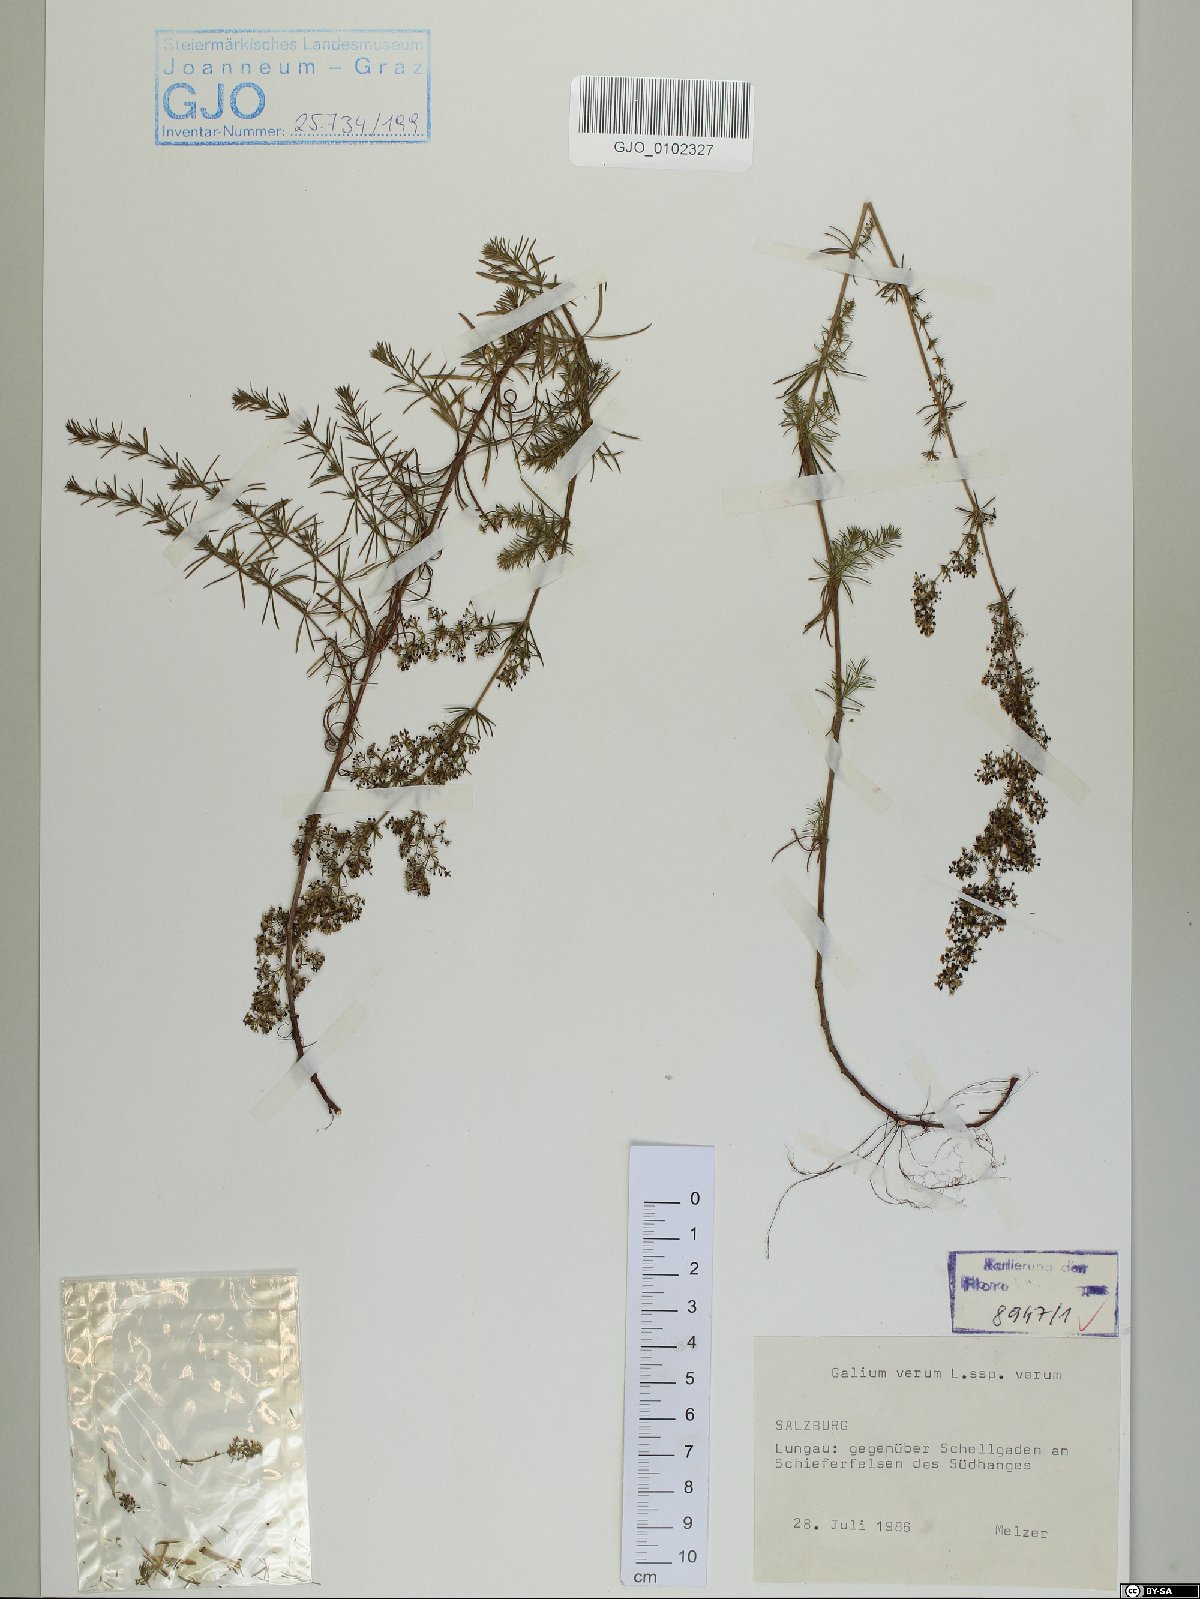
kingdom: Plantae
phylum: Tracheophyta
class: Magnoliopsida
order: Gentianales
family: Rubiaceae
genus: Galium
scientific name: Galium verum
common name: Lady's bedstraw
